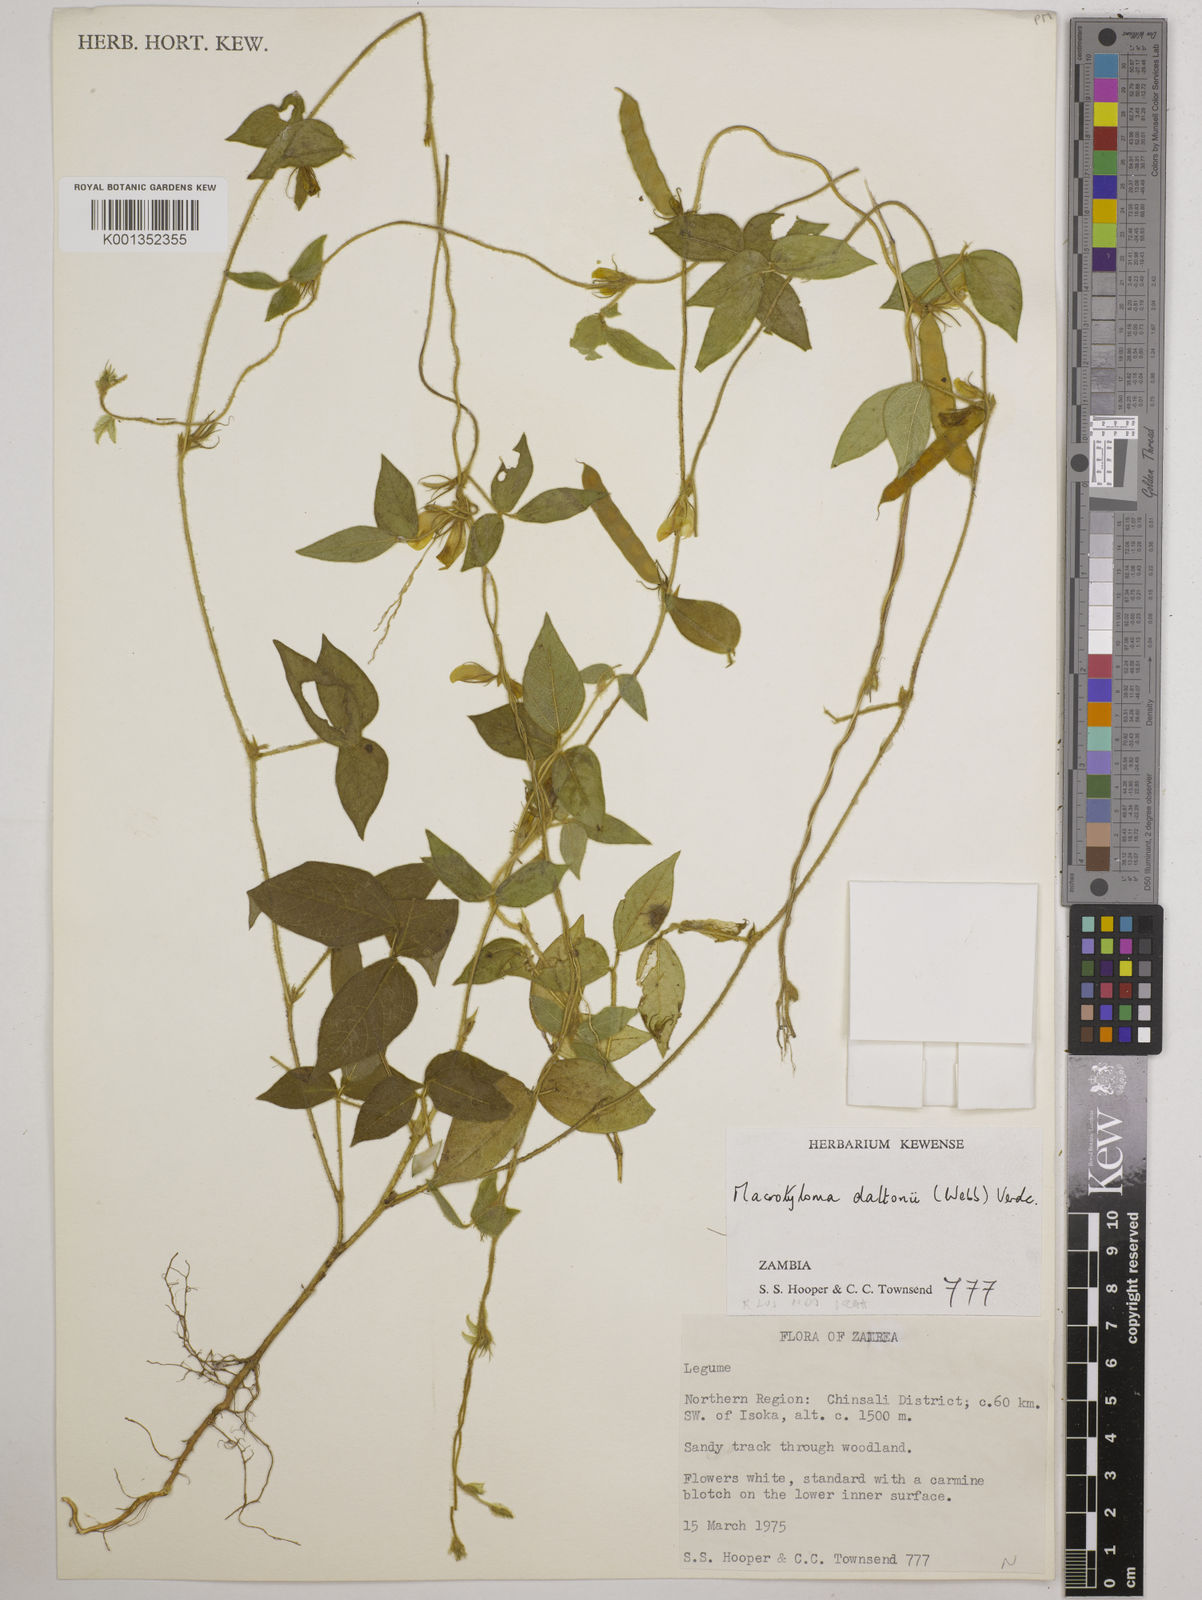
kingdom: Plantae
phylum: Tracheophyta
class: Magnoliopsida
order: Fabales
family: Fabaceae
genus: Macrotyloma
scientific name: Macrotyloma daltonii
